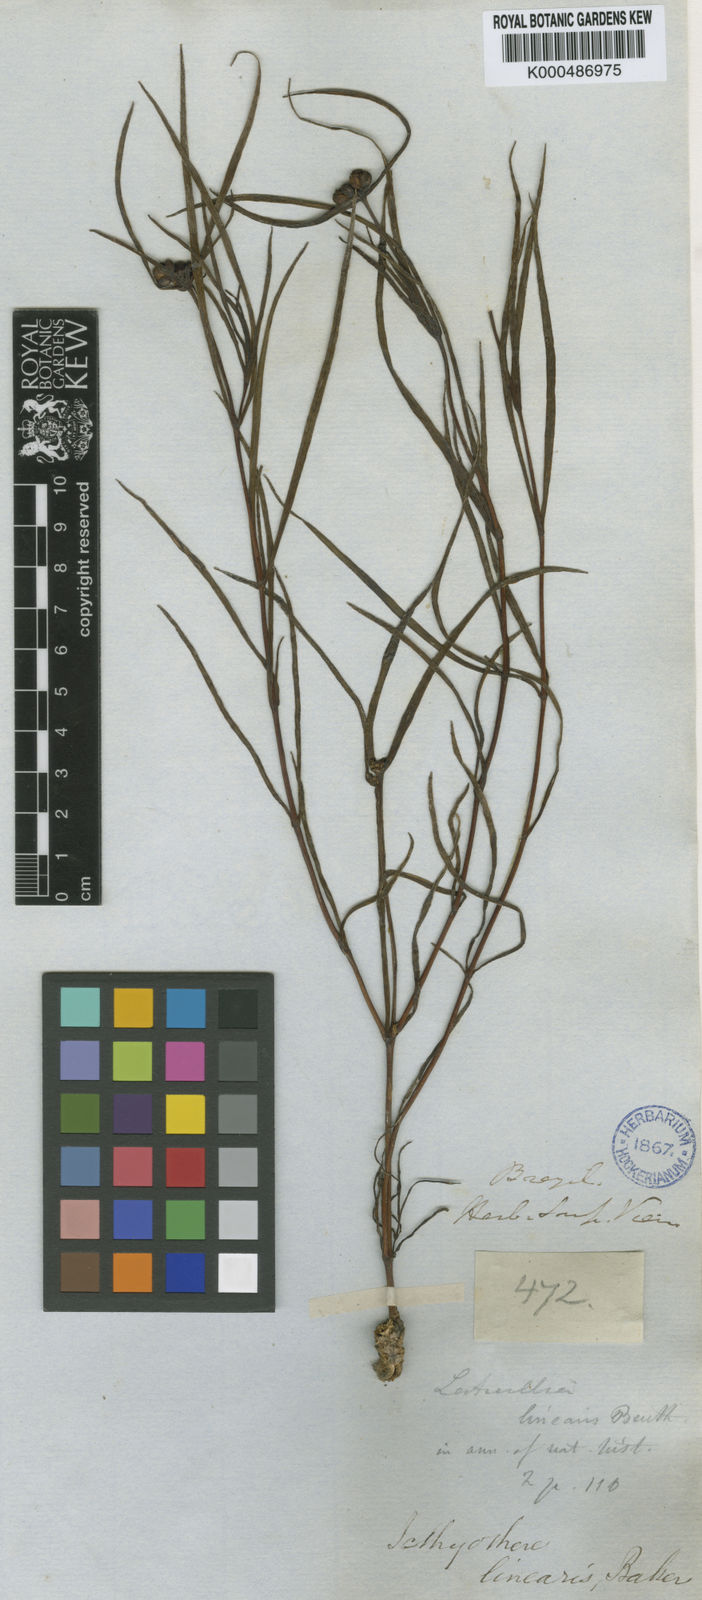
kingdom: Plantae
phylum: Tracheophyta
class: Magnoliopsida
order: Asterales
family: Asteraceae
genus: Ichthyothere
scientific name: Ichthyothere linearis
